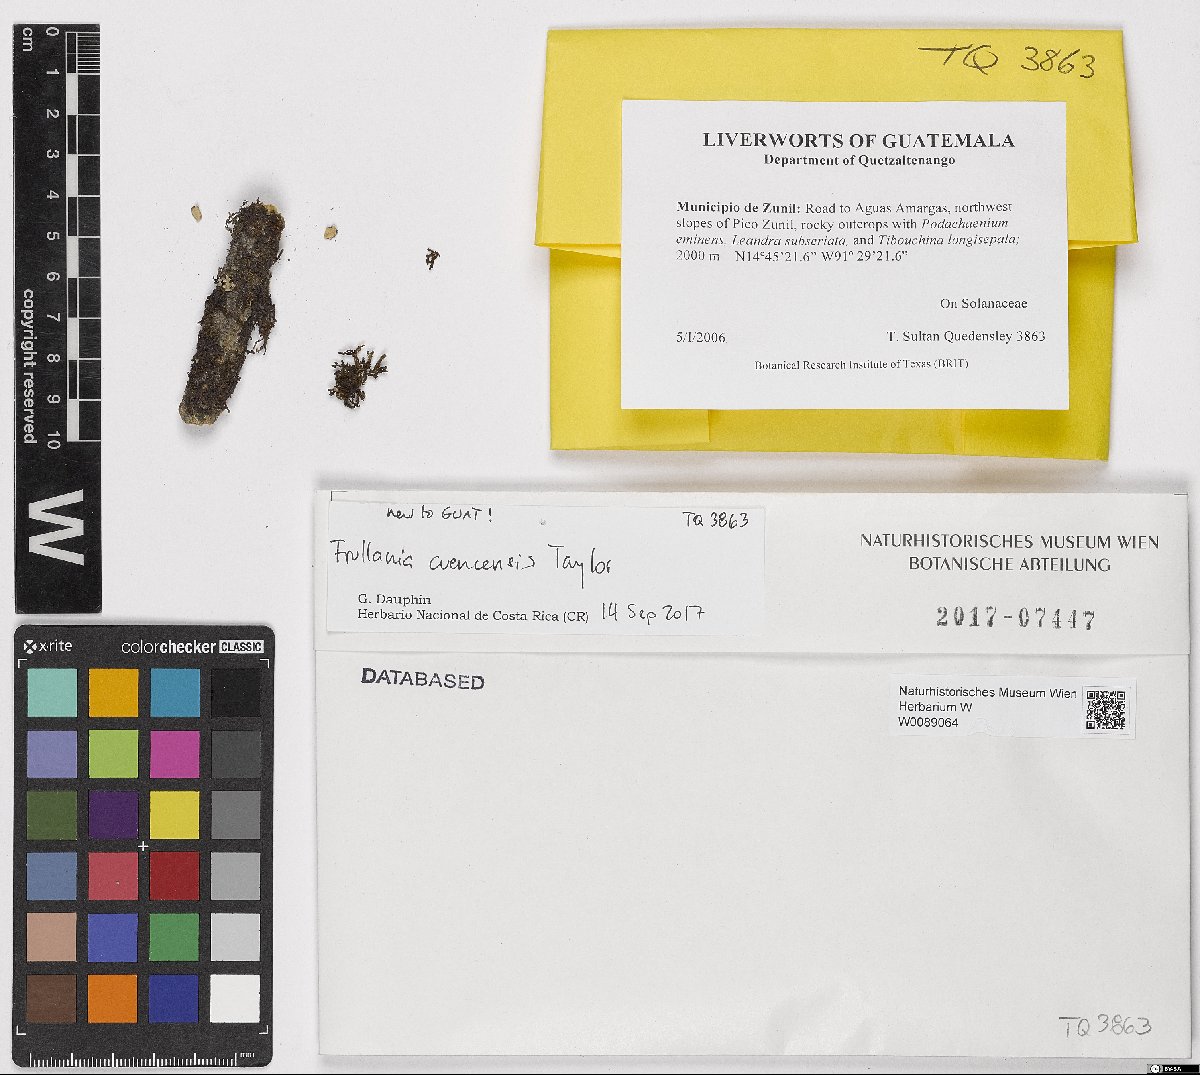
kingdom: Plantae
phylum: Marchantiophyta
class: Jungermanniopsida
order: Porellales
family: Frullaniaceae
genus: Frullania
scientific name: Frullania cuencensis
